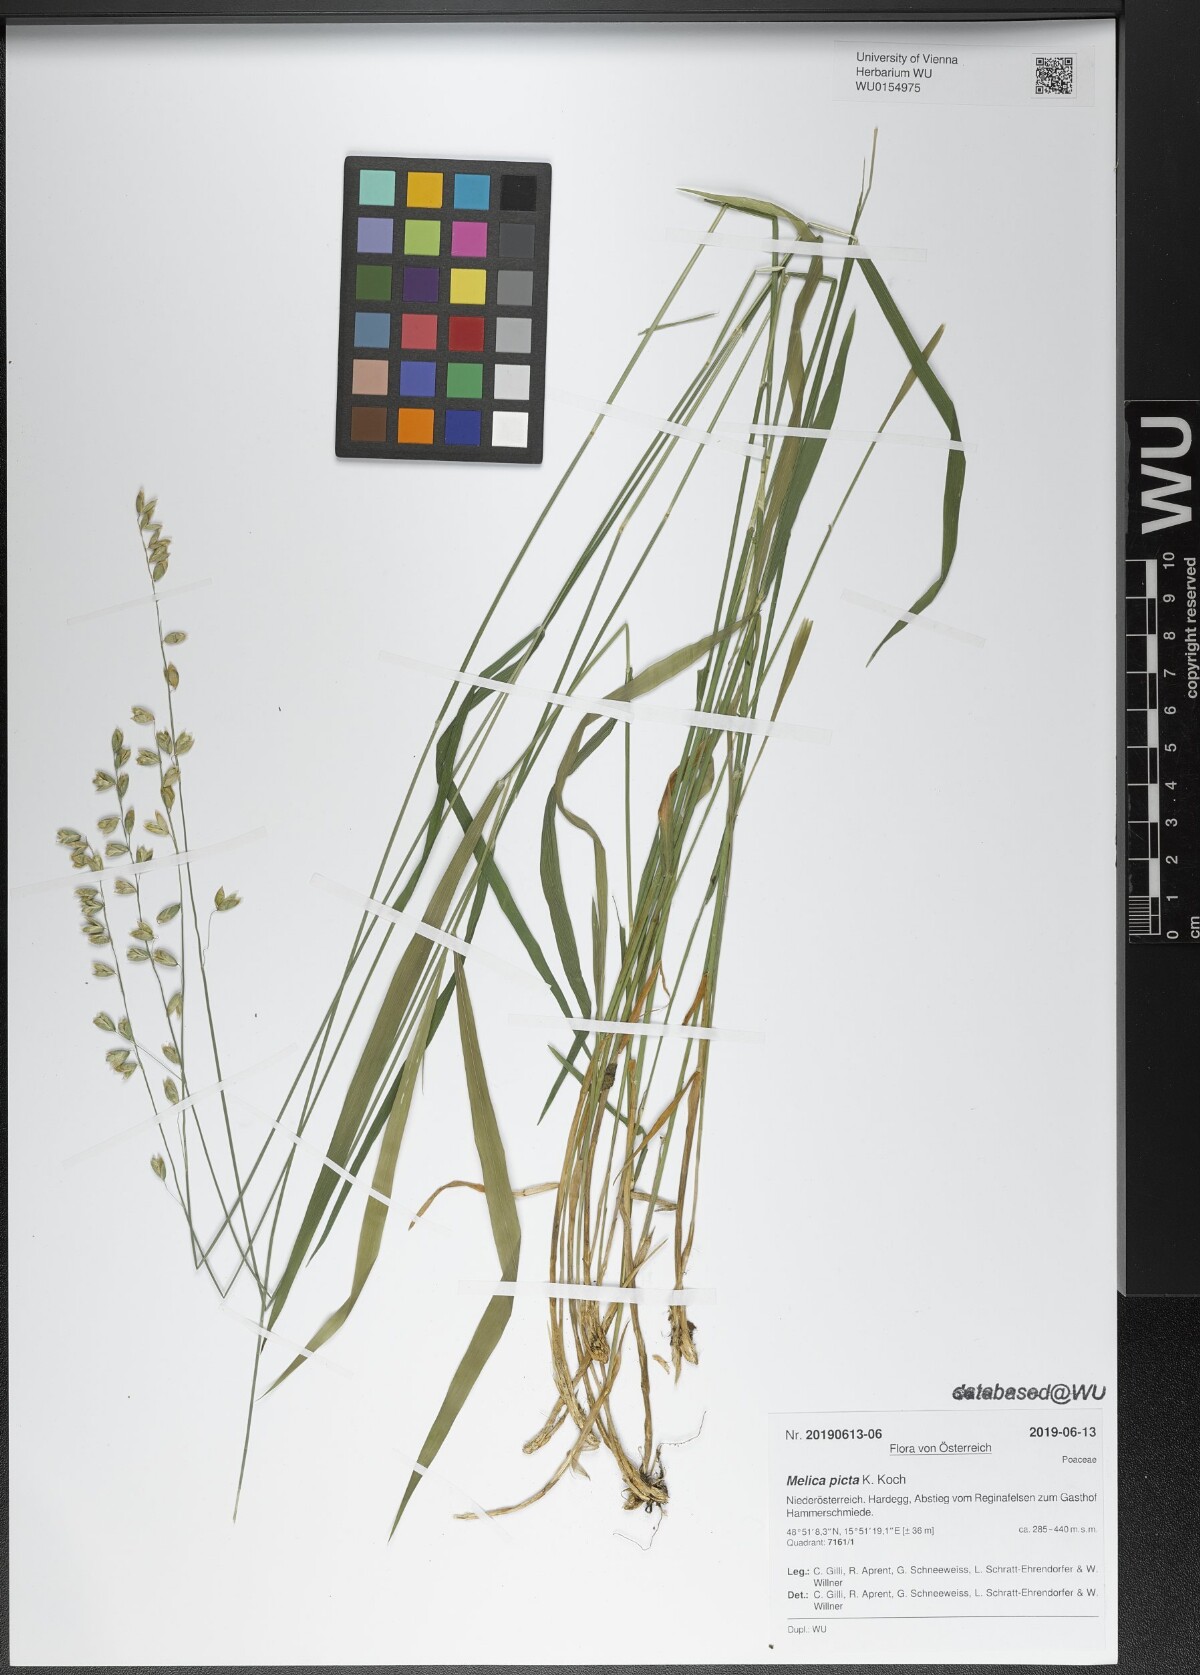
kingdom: Plantae
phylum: Tracheophyta
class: Liliopsida
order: Poales
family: Poaceae
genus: Melica
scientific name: Melica picta
